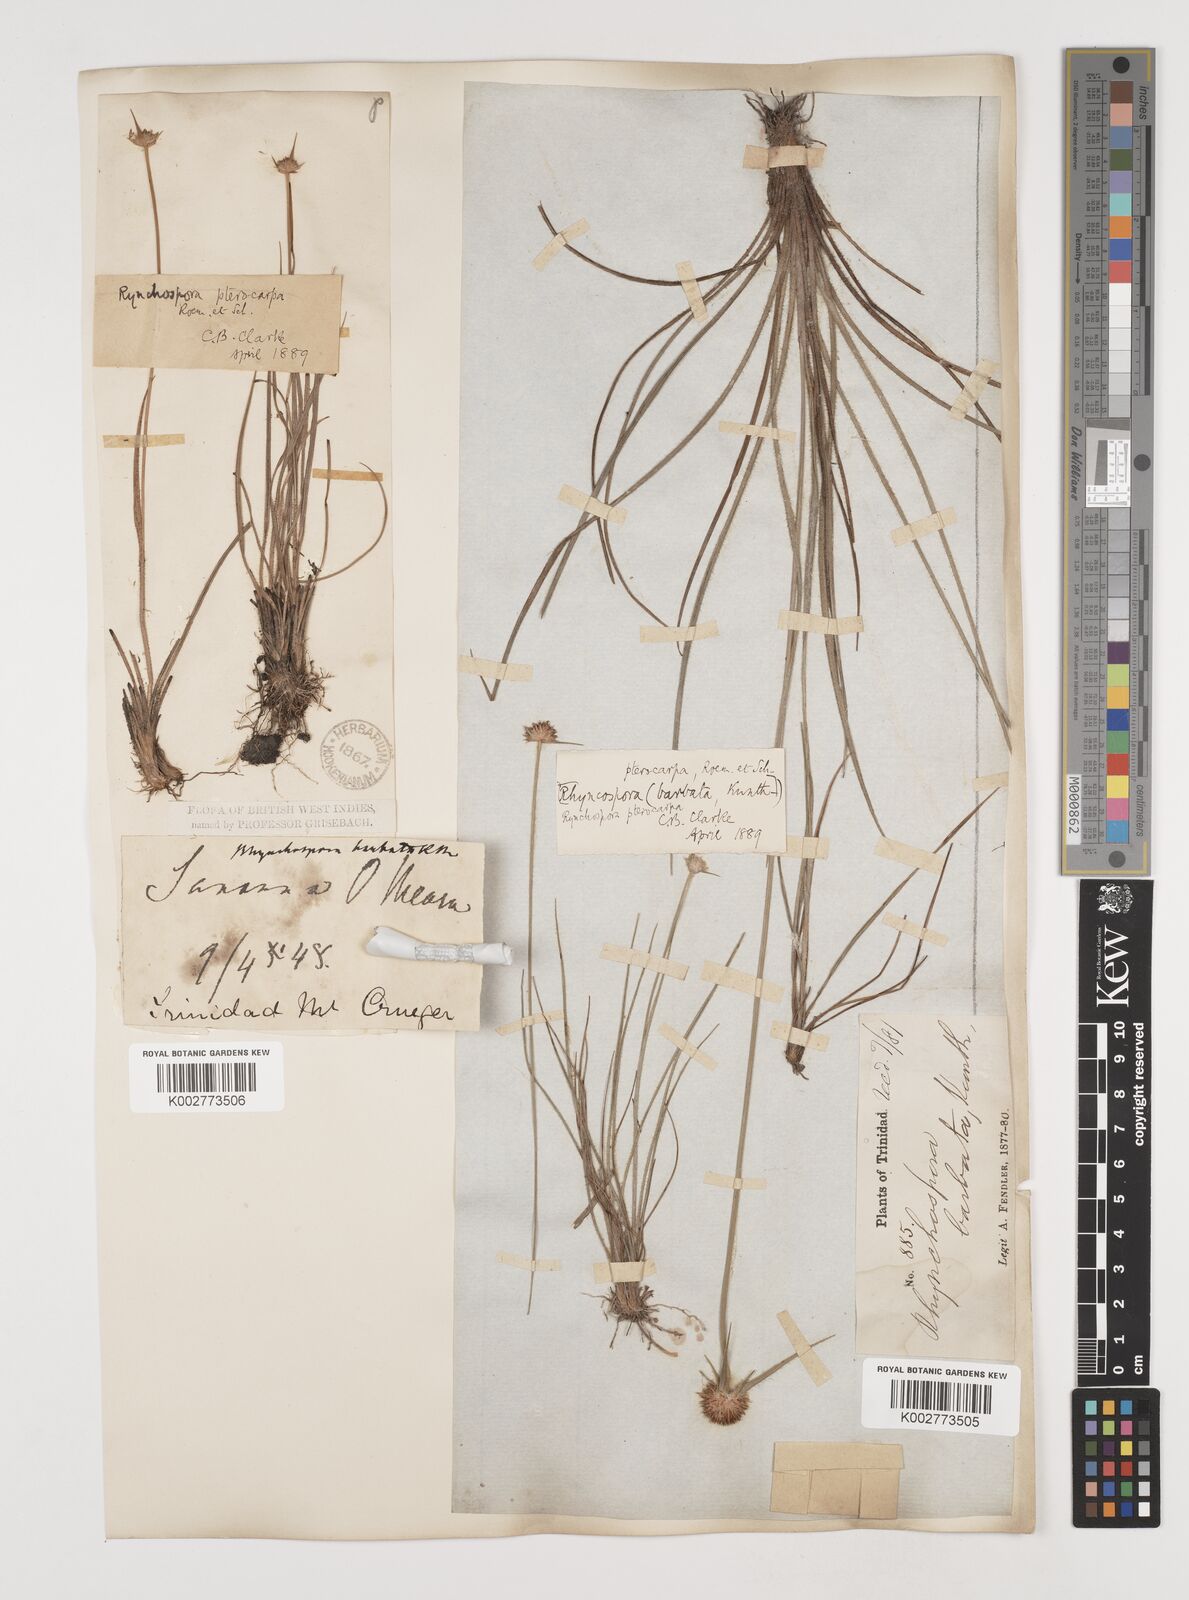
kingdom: Plantae
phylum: Tracheophyta
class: Liliopsida
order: Poales
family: Cyperaceae
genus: Rhynchospora
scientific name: Rhynchospora barbata
